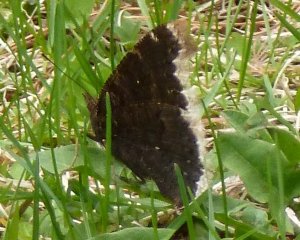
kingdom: Animalia
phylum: Arthropoda
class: Insecta
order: Lepidoptera
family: Nymphalidae
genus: Nymphalis
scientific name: Nymphalis antiopa
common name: Mourning Cloak
